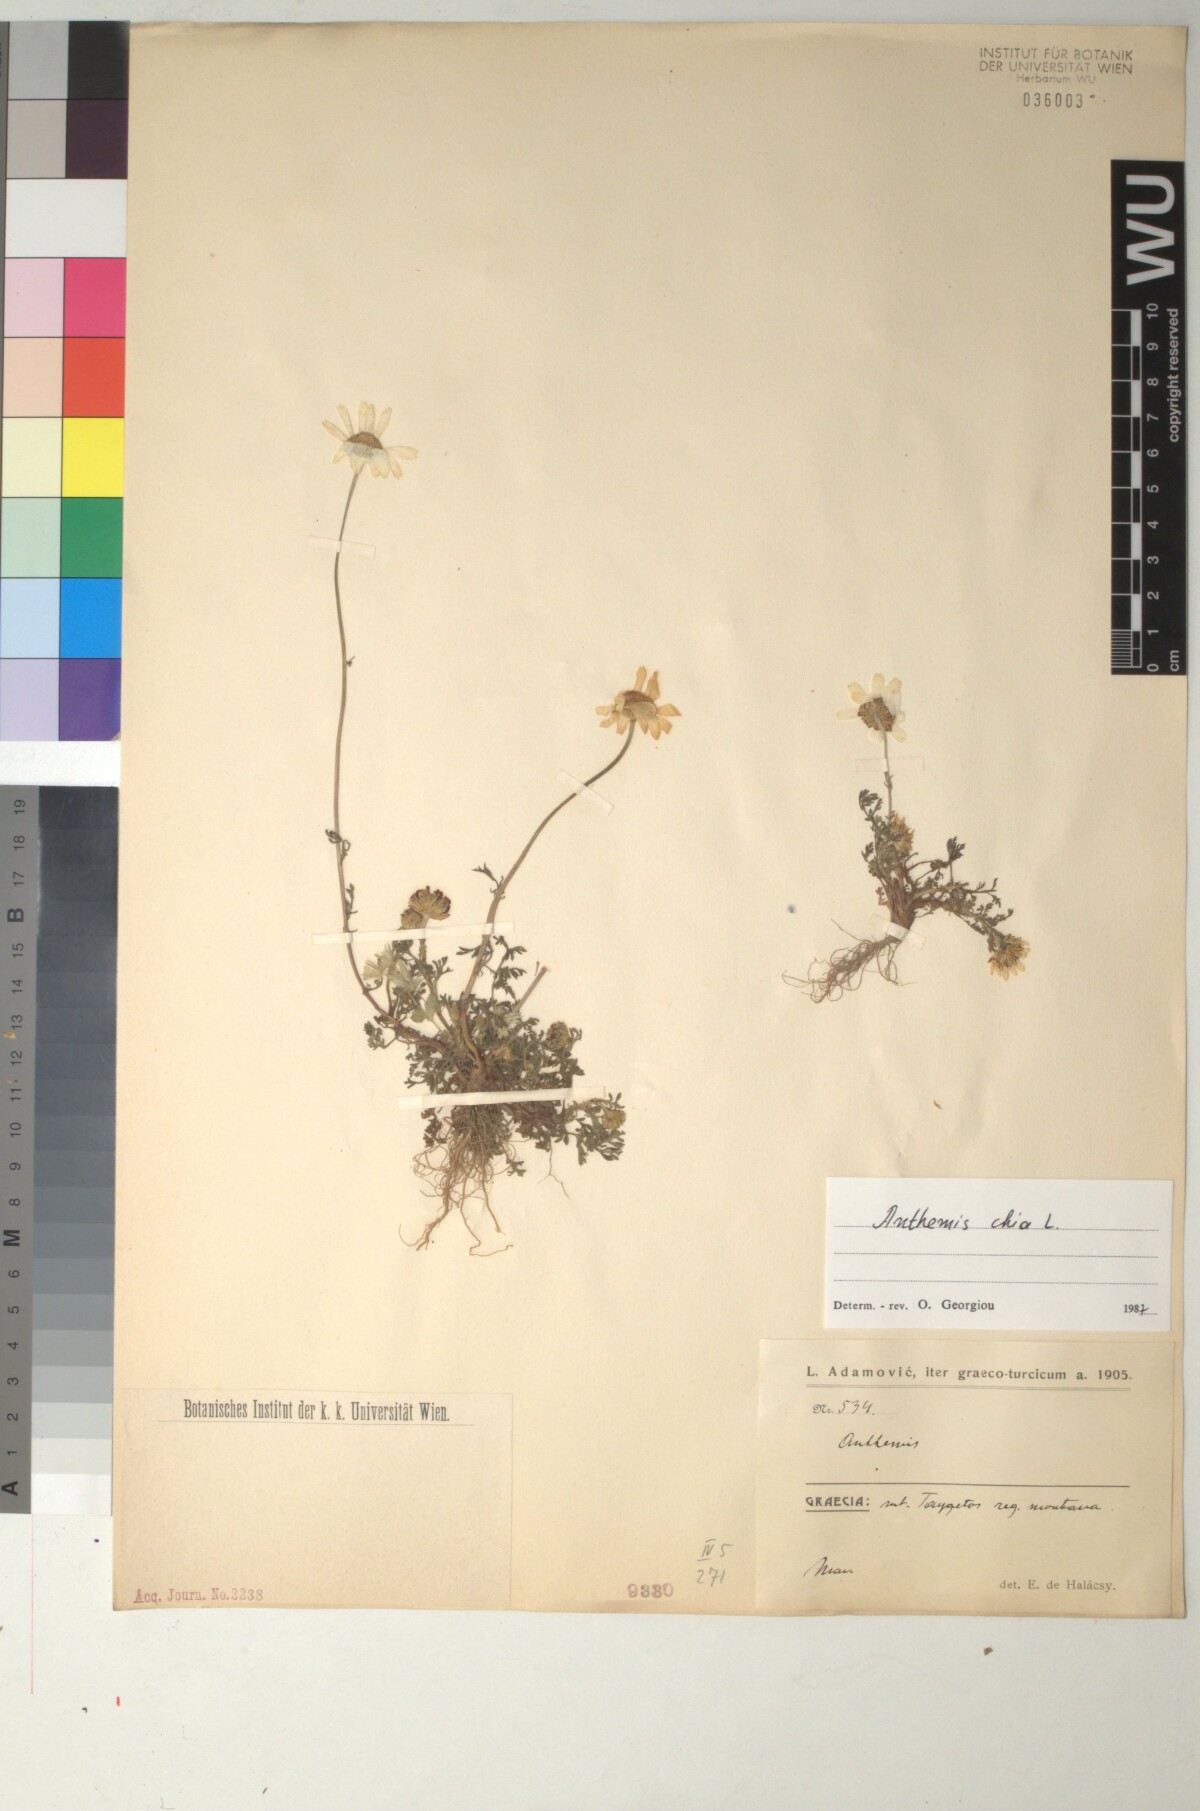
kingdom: Plantae
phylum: Tracheophyta
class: Magnoliopsida
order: Asterales
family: Asteraceae
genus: Anthemis
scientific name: Anthemis chia
